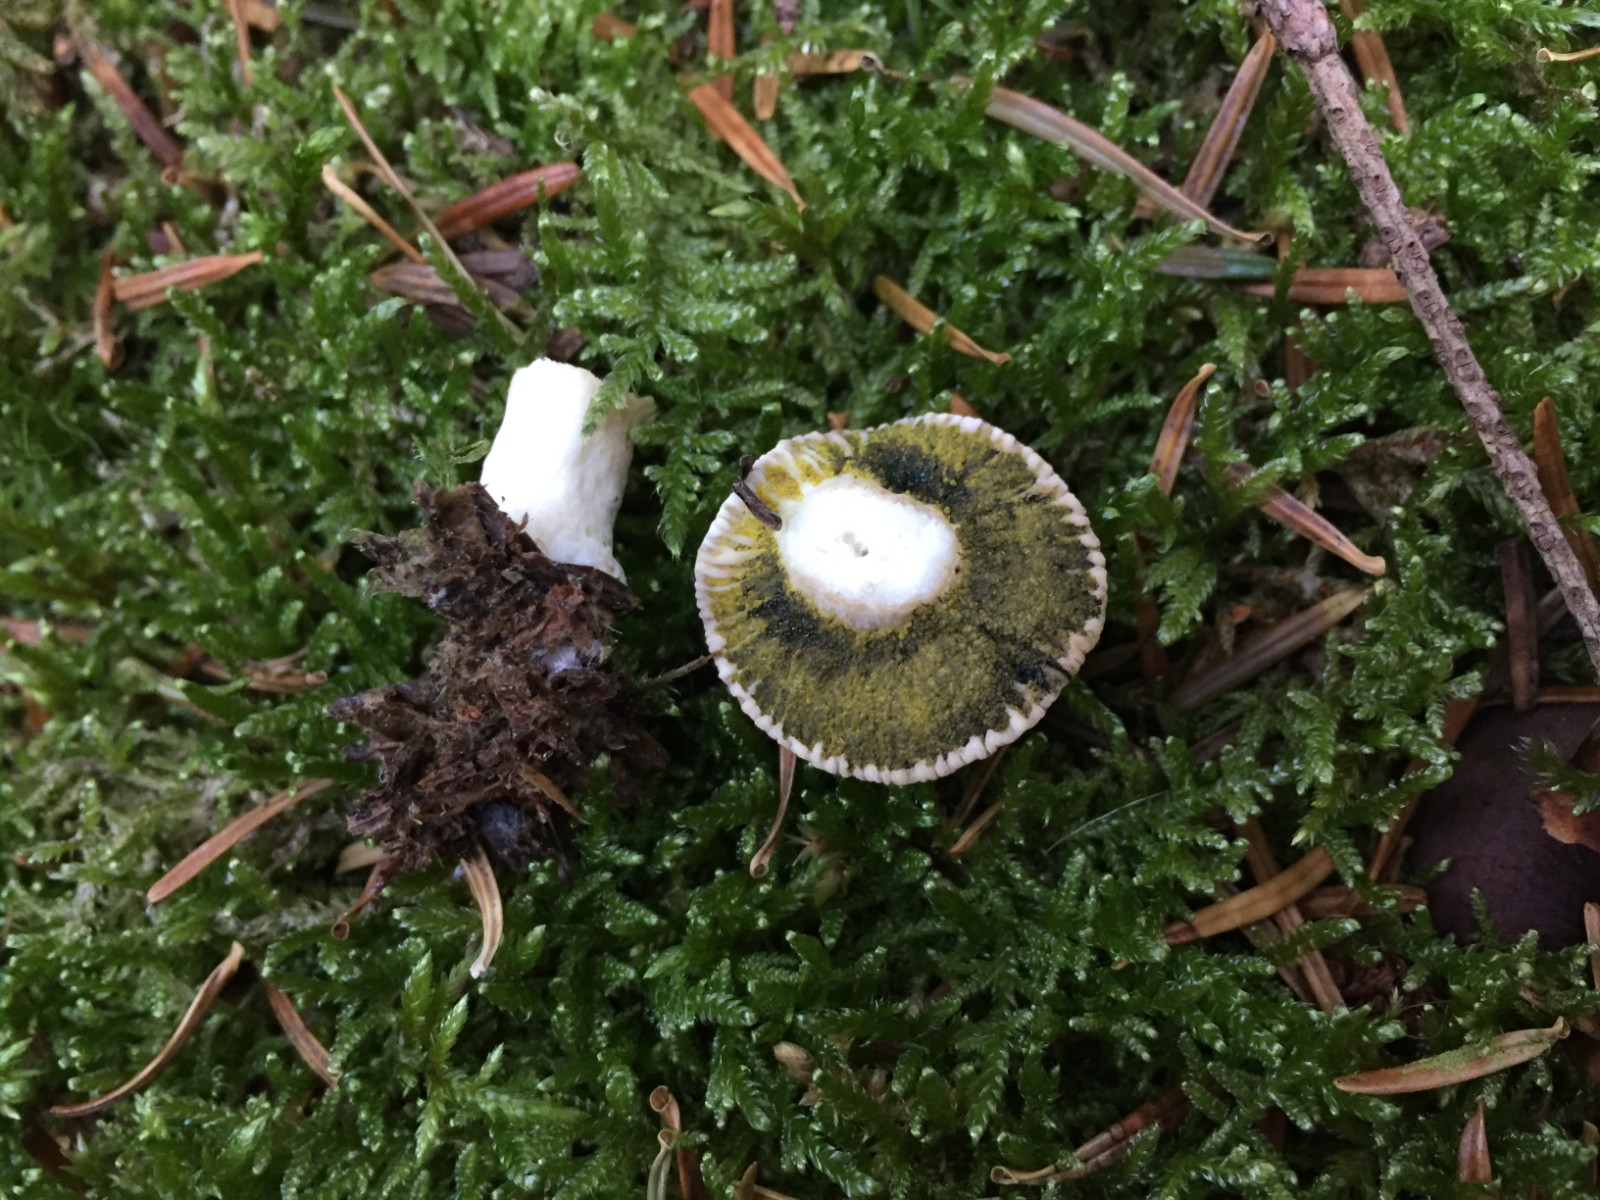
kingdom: Fungi
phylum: Ascomycota
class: Sordariomycetes
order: Hypocreales
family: Hypocreaceae
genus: Hypomyces
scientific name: Hypomyces luteovirens
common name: gulgrøn snylteskorpe
